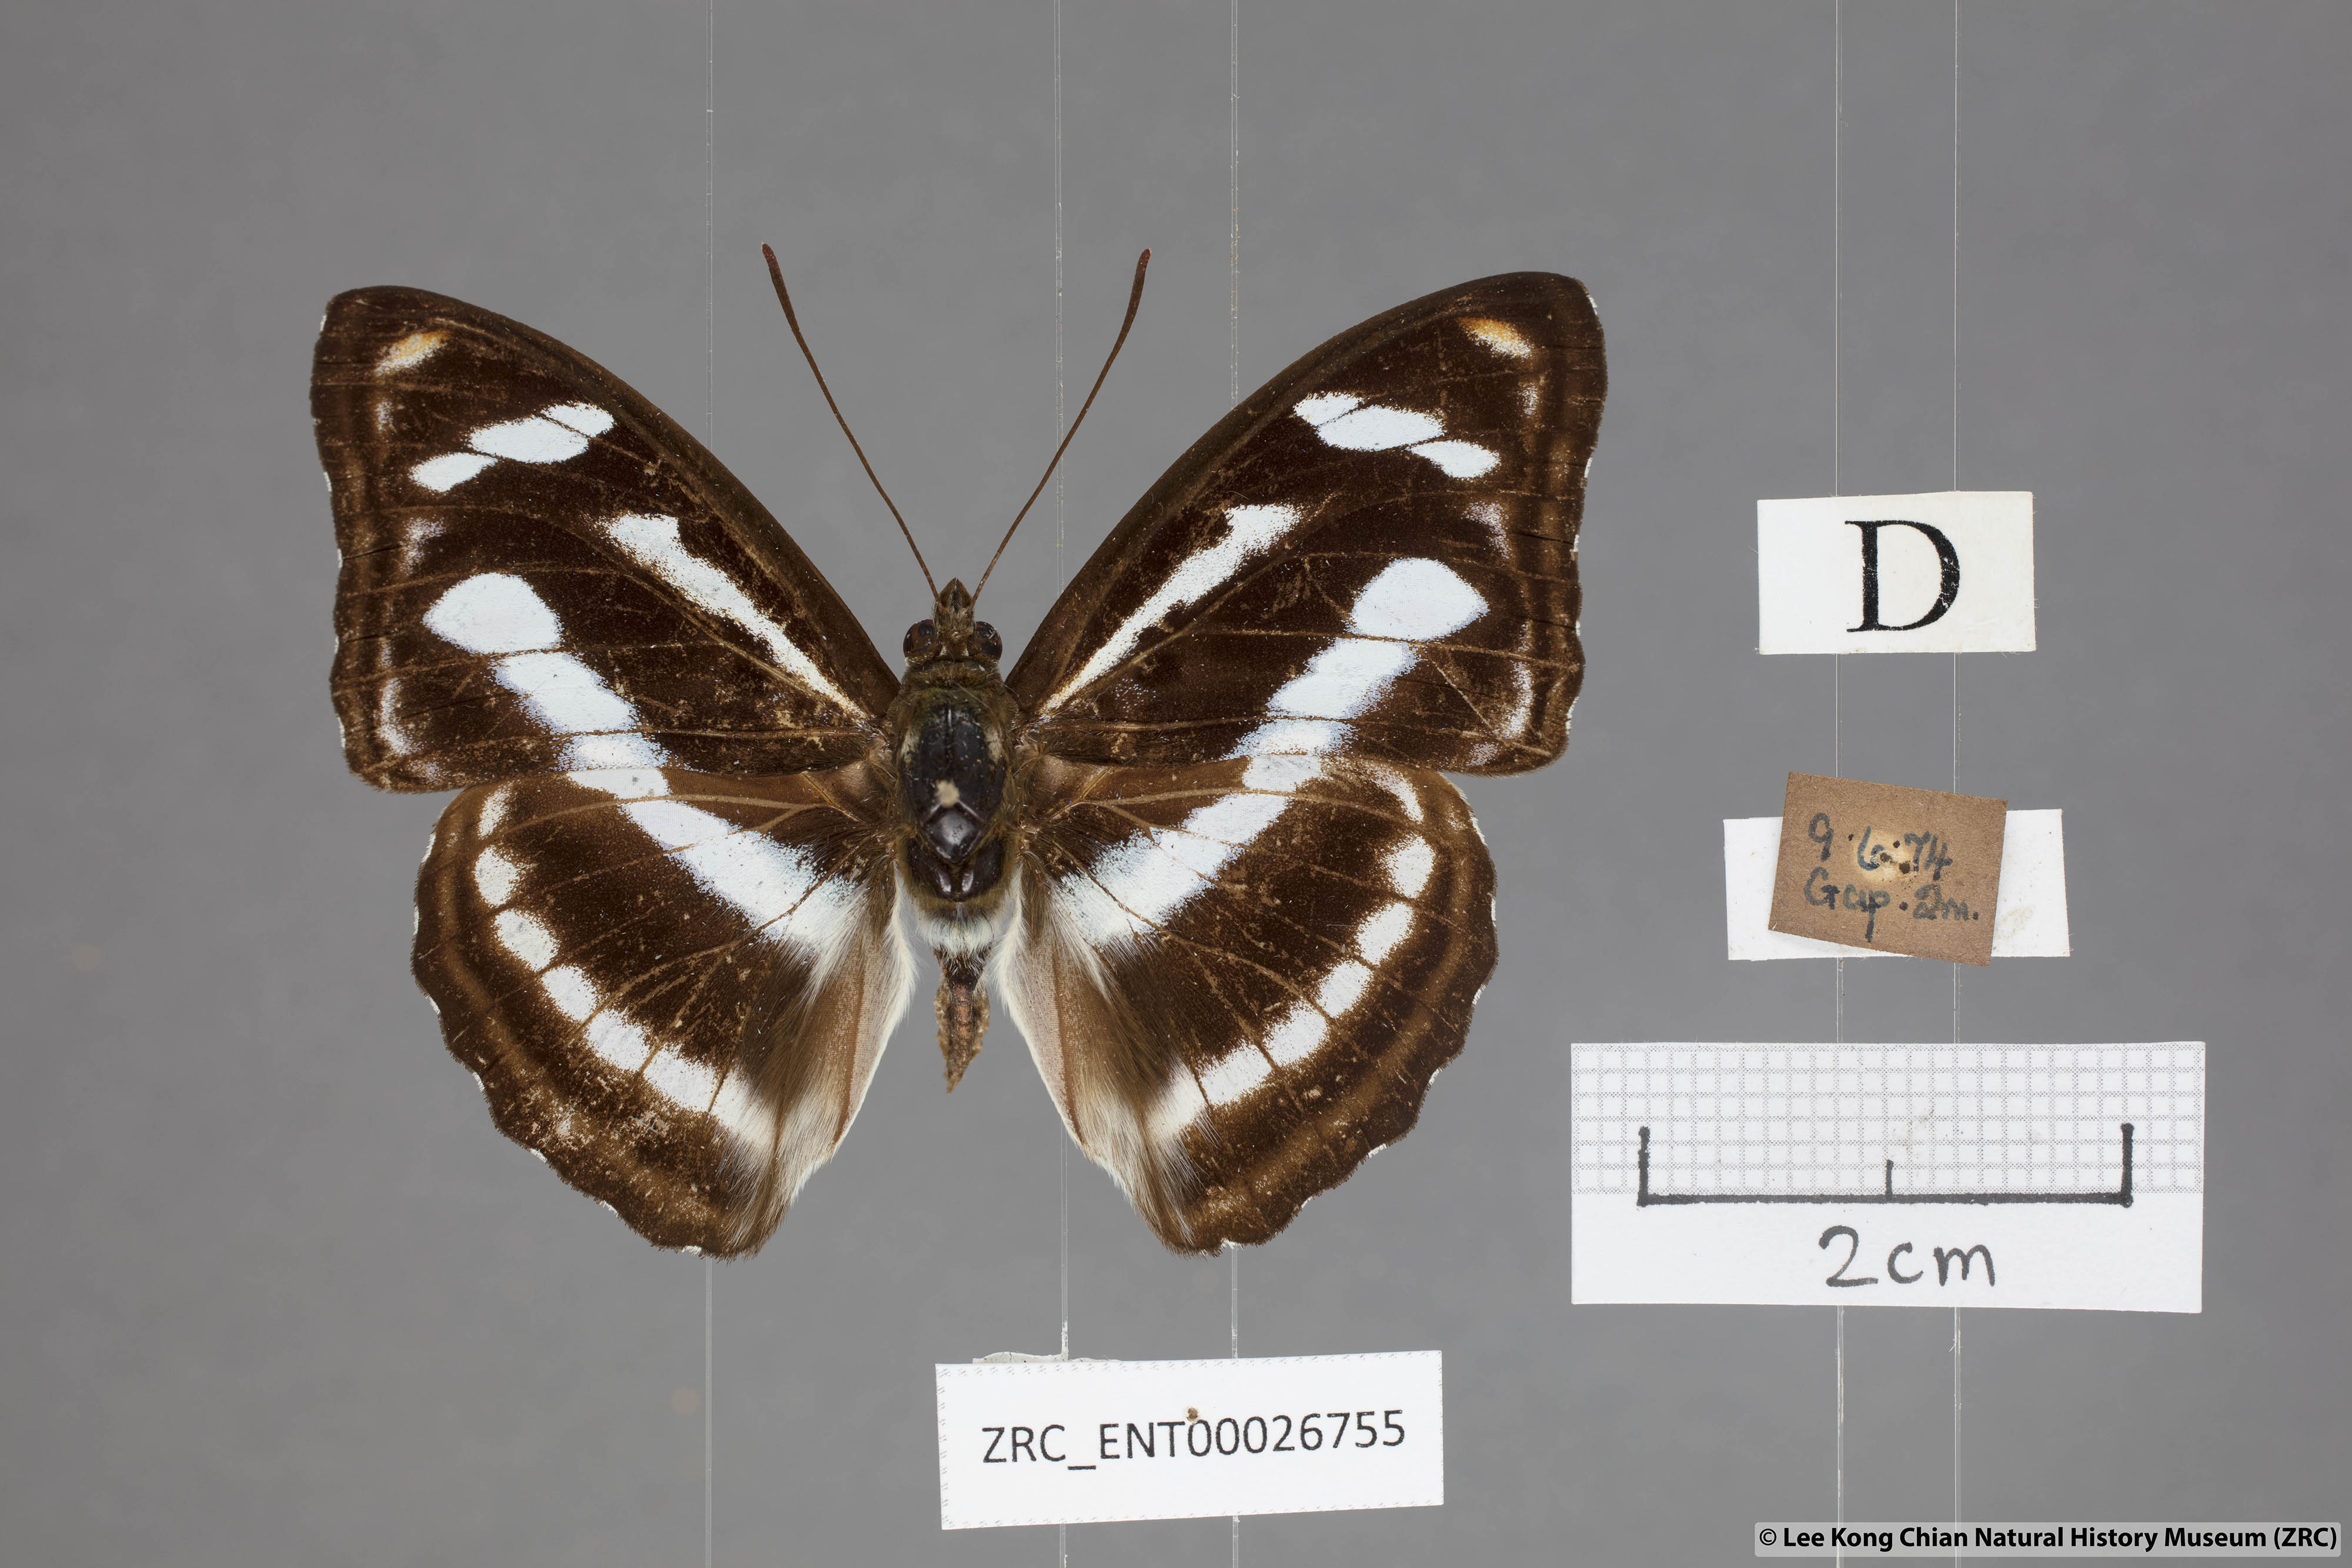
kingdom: Animalia
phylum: Arthropoda
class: Insecta
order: Lepidoptera
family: Nymphalidae
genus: Pantoporia
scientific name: Pantoporia cama
